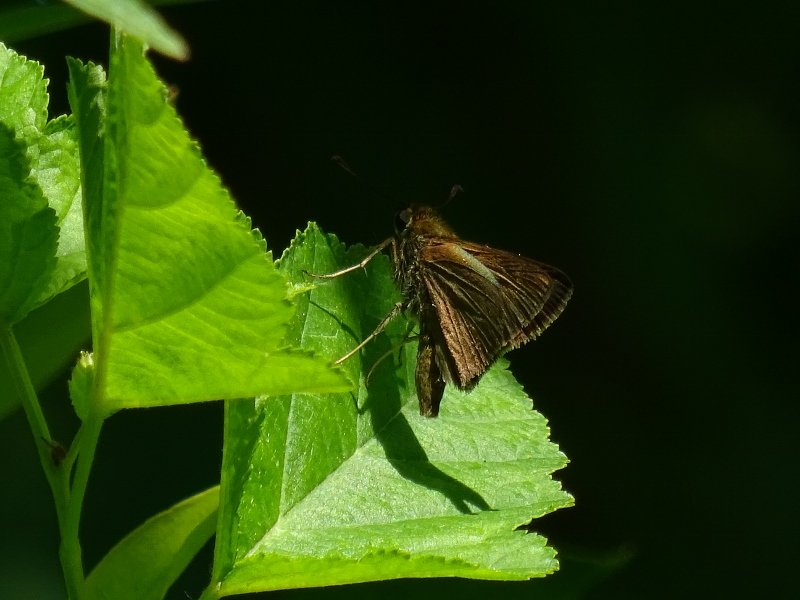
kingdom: Animalia
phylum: Arthropoda
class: Insecta
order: Lepidoptera
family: Hesperiidae
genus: Euphyes
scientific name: Euphyes vestris
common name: Dun Skipper
